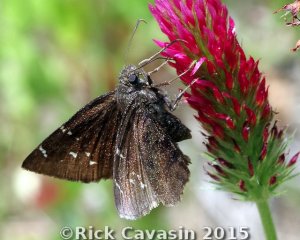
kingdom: Animalia
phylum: Arthropoda
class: Insecta
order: Lepidoptera
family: Hesperiidae
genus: Autochton
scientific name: Autochton
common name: Northern Cloudywing
